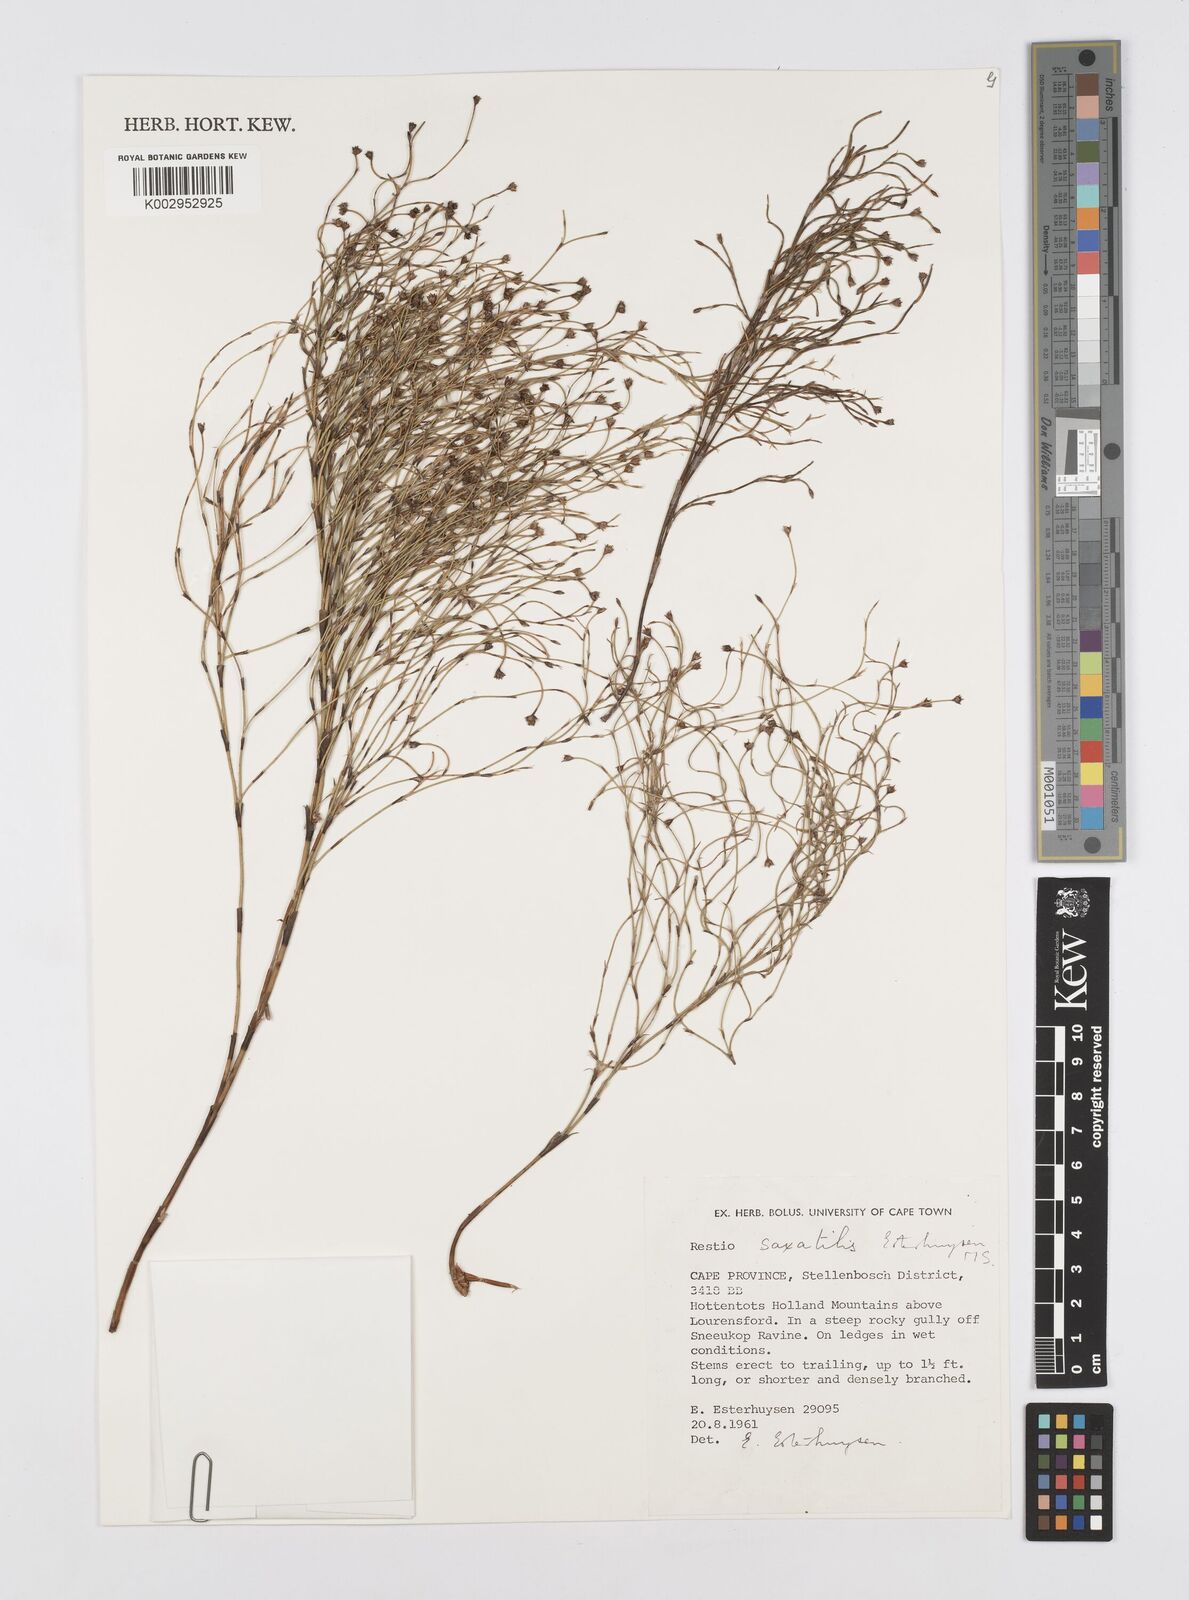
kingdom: Plantae
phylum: Tracheophyta
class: Liliopsida
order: Poales
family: Restionaceae
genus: Restio
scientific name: Restio saxatilis
